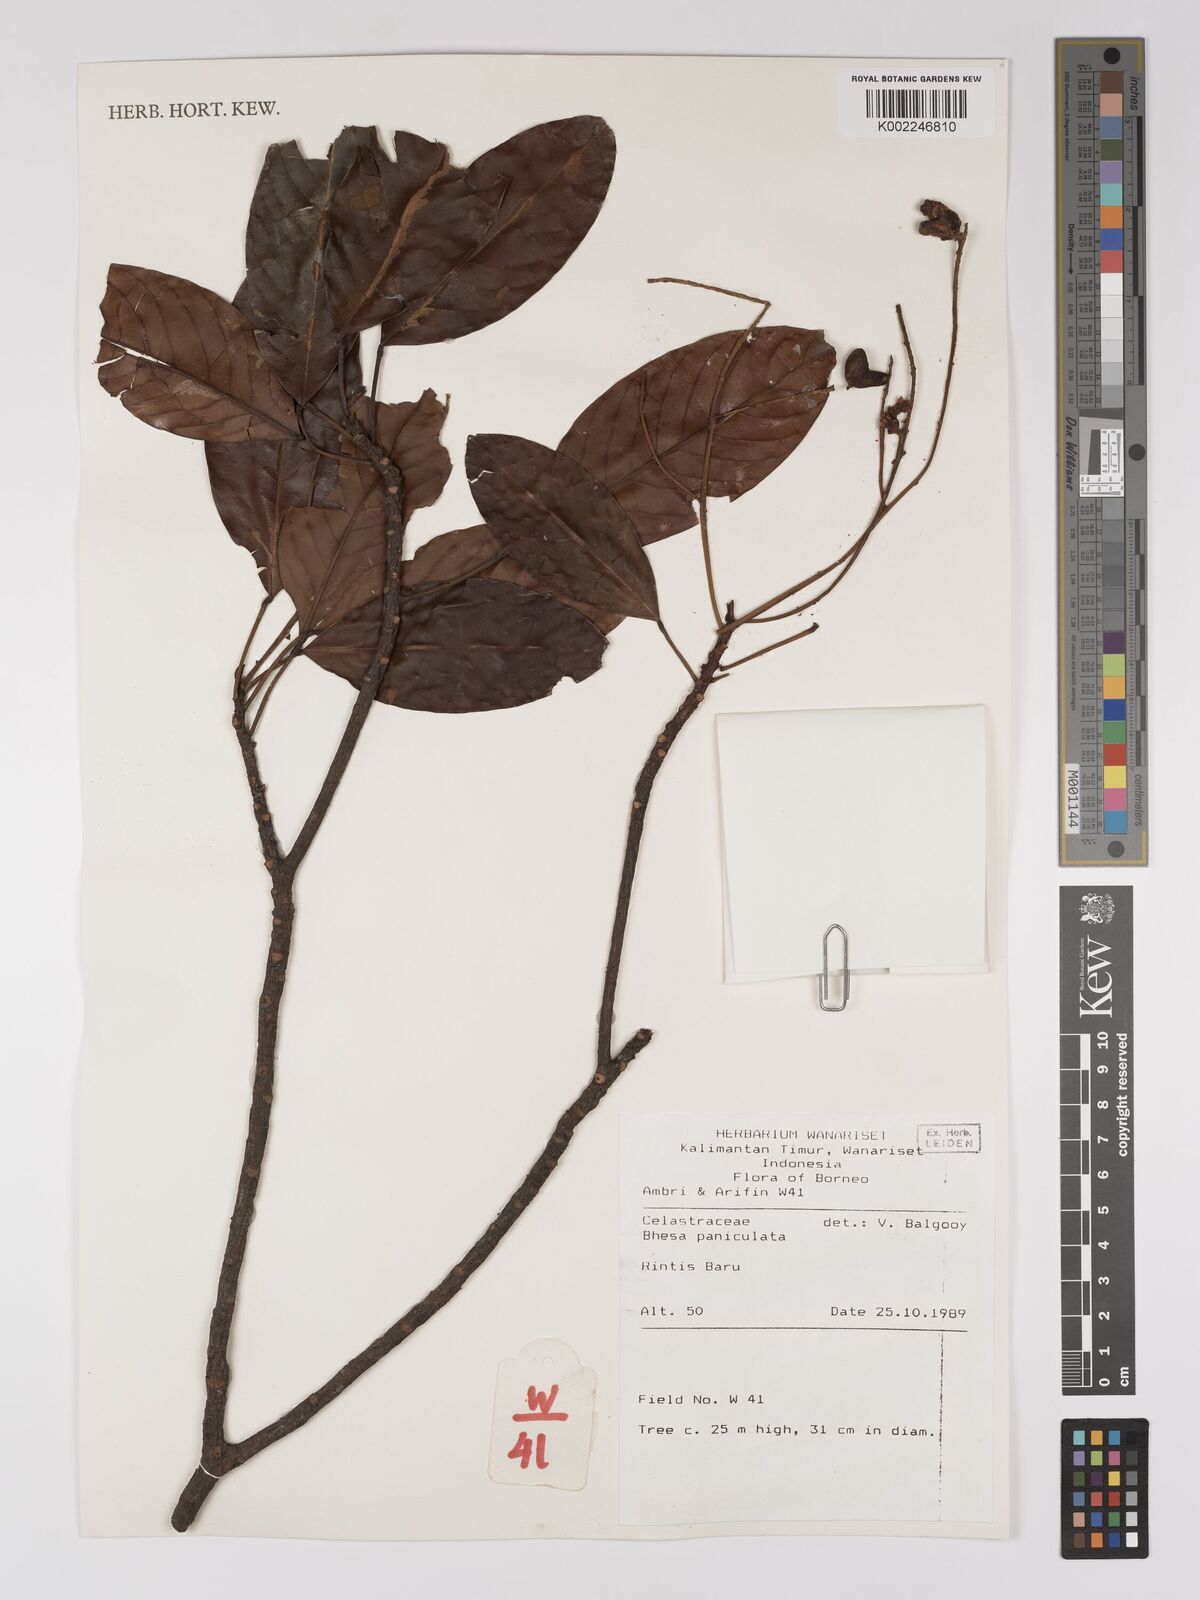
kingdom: Plantae
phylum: Tracheophyta
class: Magnoliopsida
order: Malpighiales
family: Centroplacaceae
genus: Bhesa
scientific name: Bhesa paniculata
